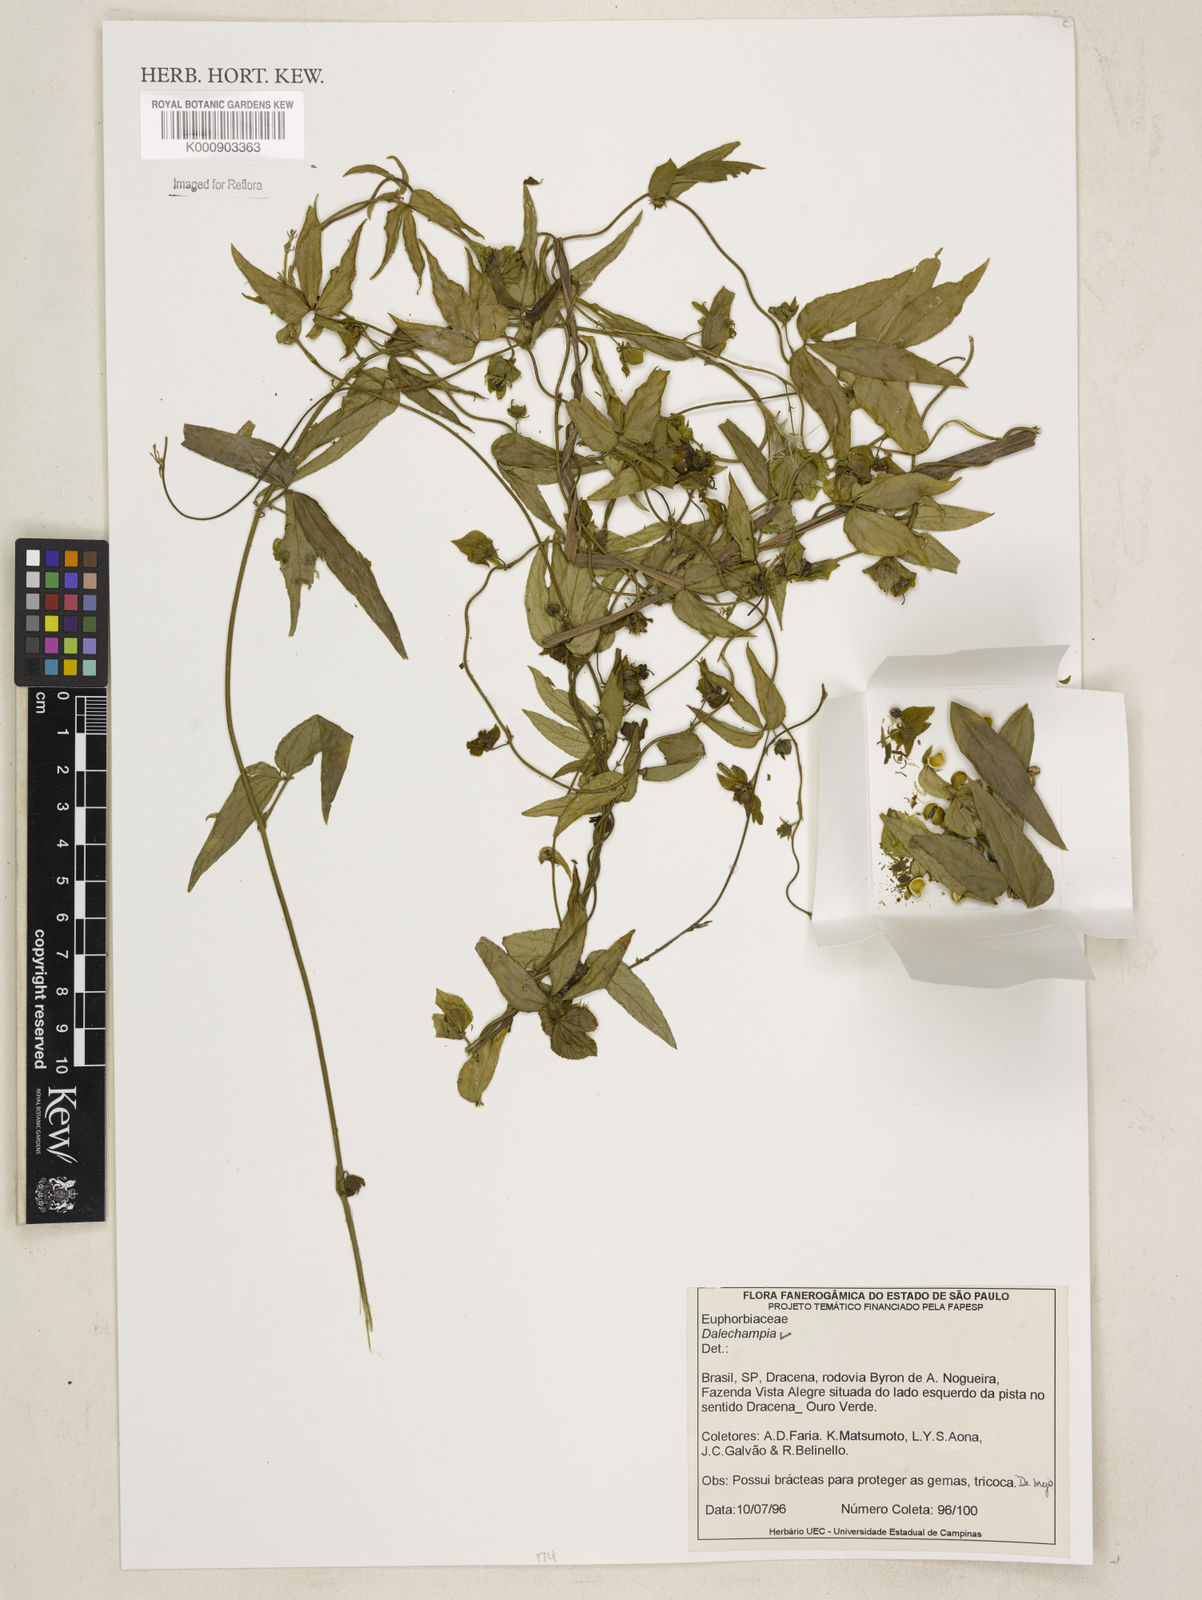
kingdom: Plantae
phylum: Tracheophyta
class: Magnoliopsida
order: Malpighiales
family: Euphorbiaceae
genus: Dalechampia
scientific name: Dalechampia
